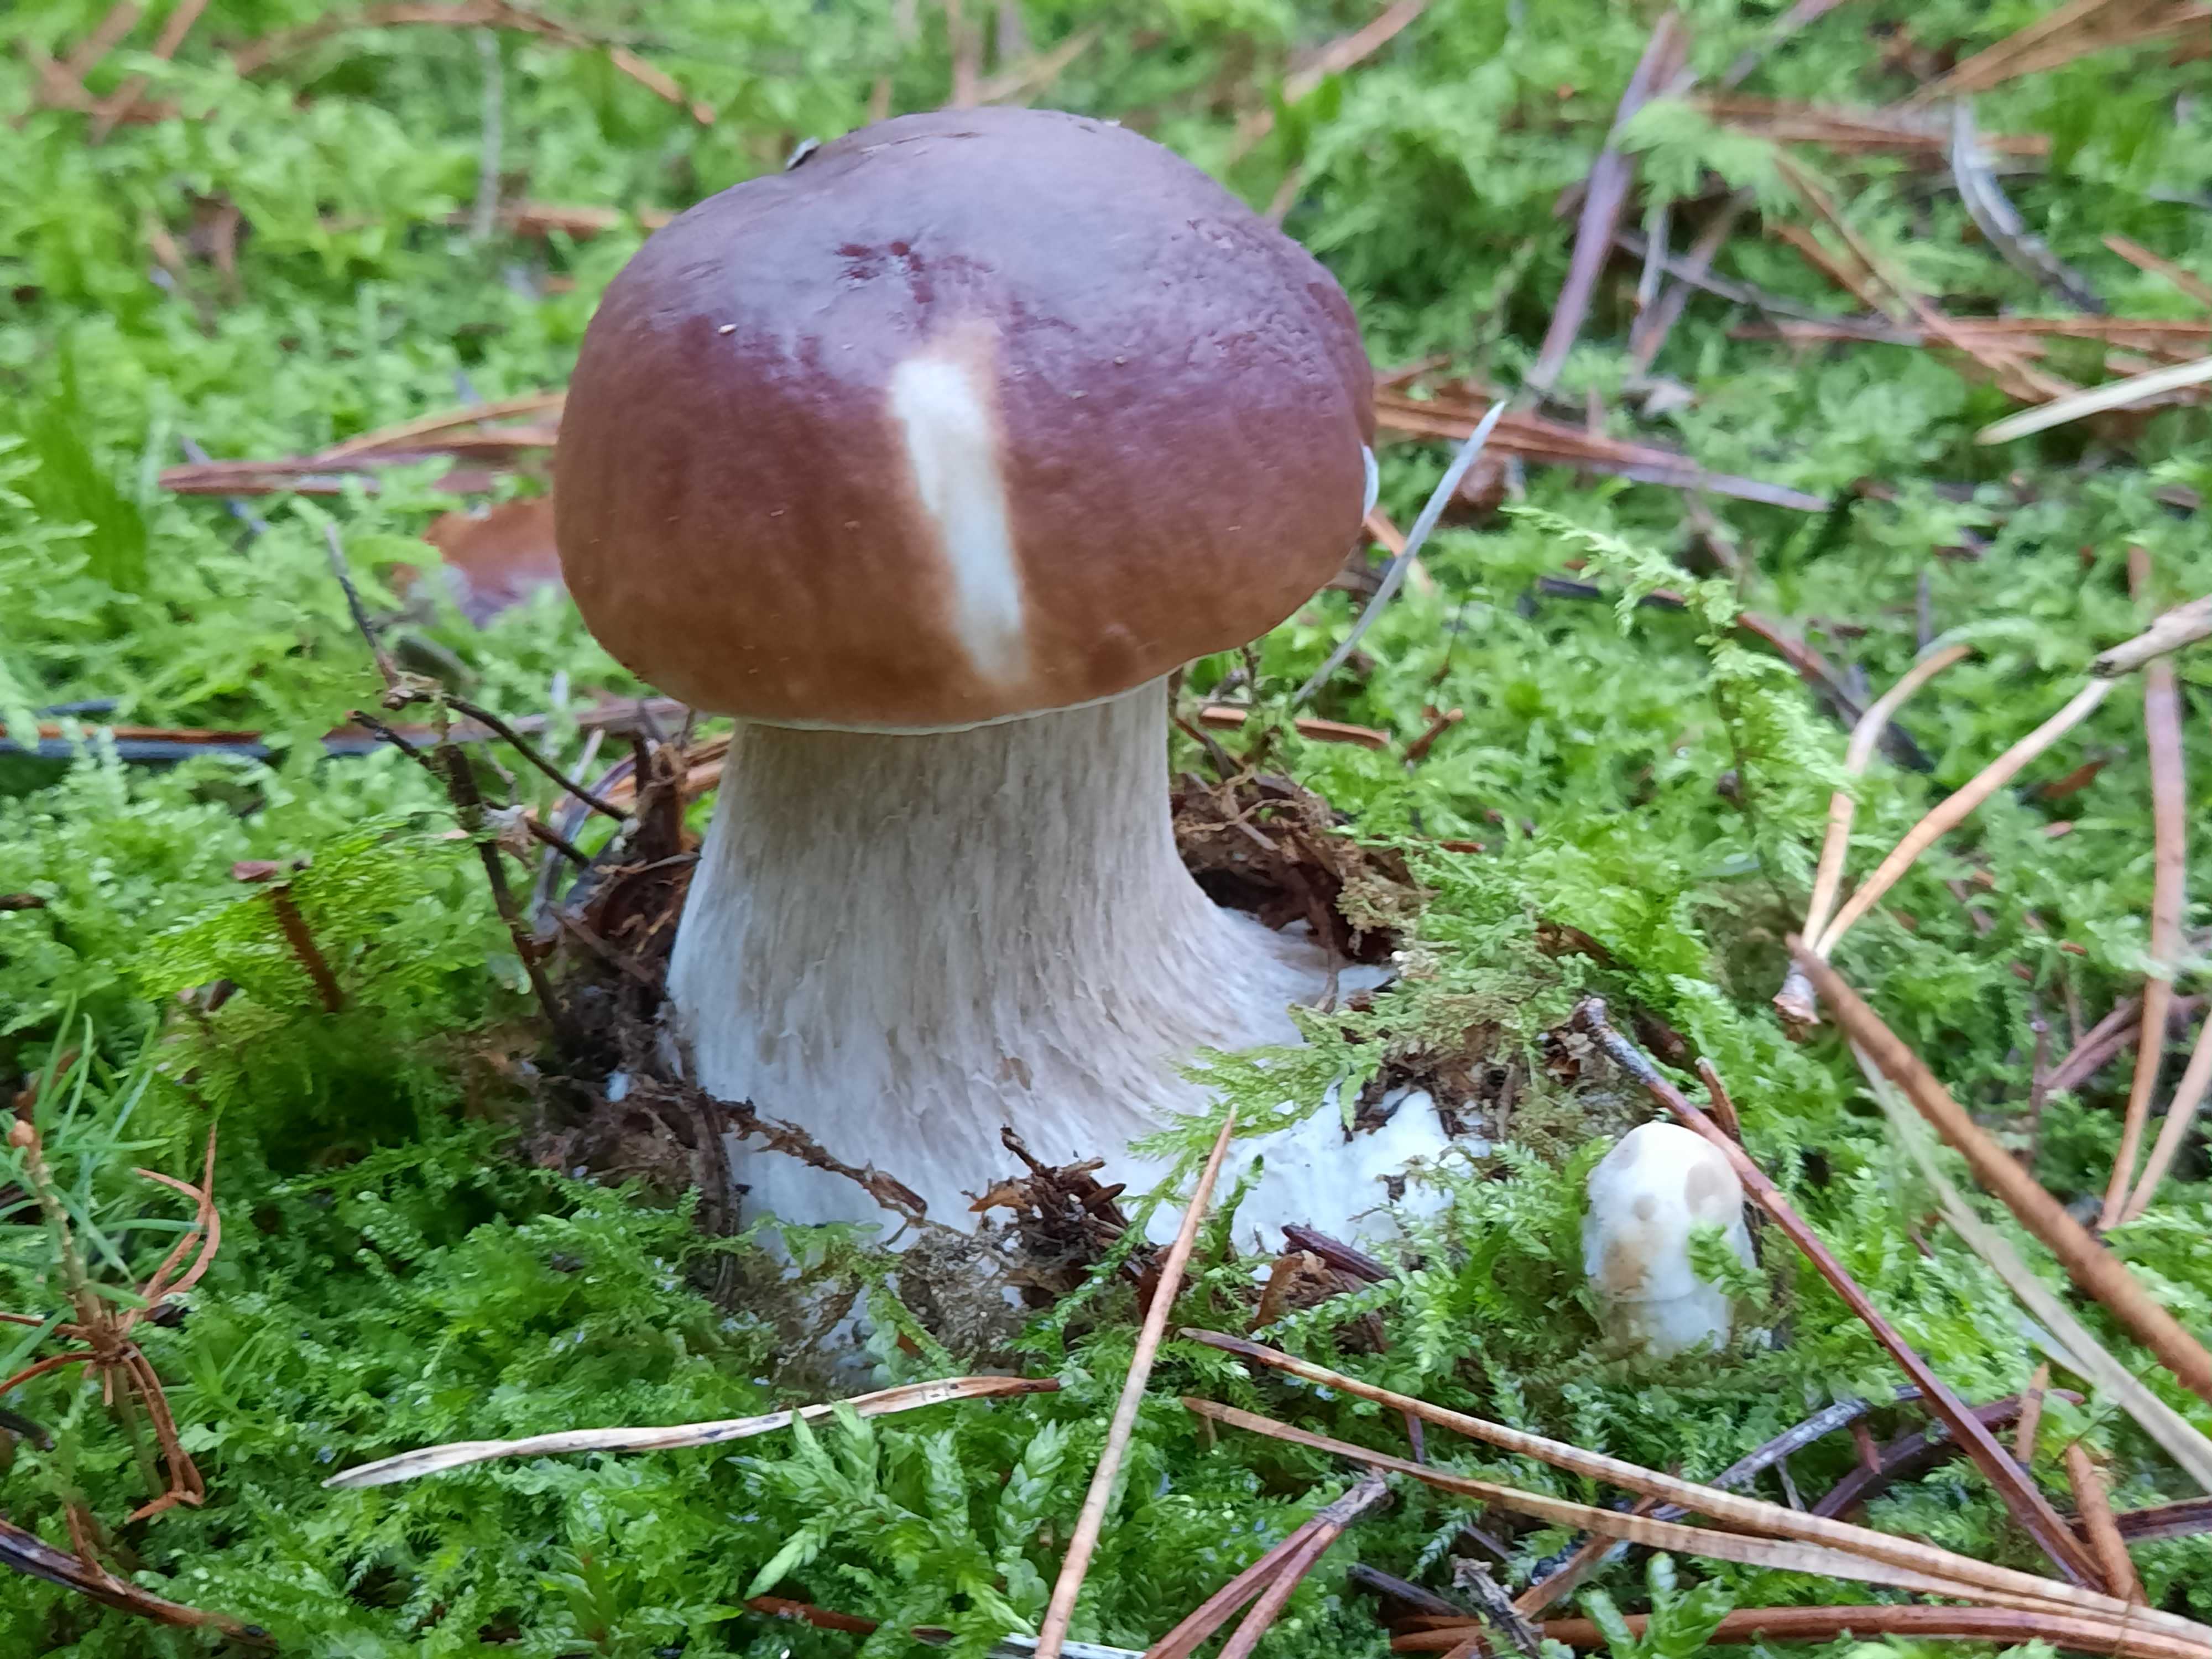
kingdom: Fungi
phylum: Basidiomycota
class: Agaricomycetes
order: Boletales
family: Boletaceae
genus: Boletus
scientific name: Boletus edulis
